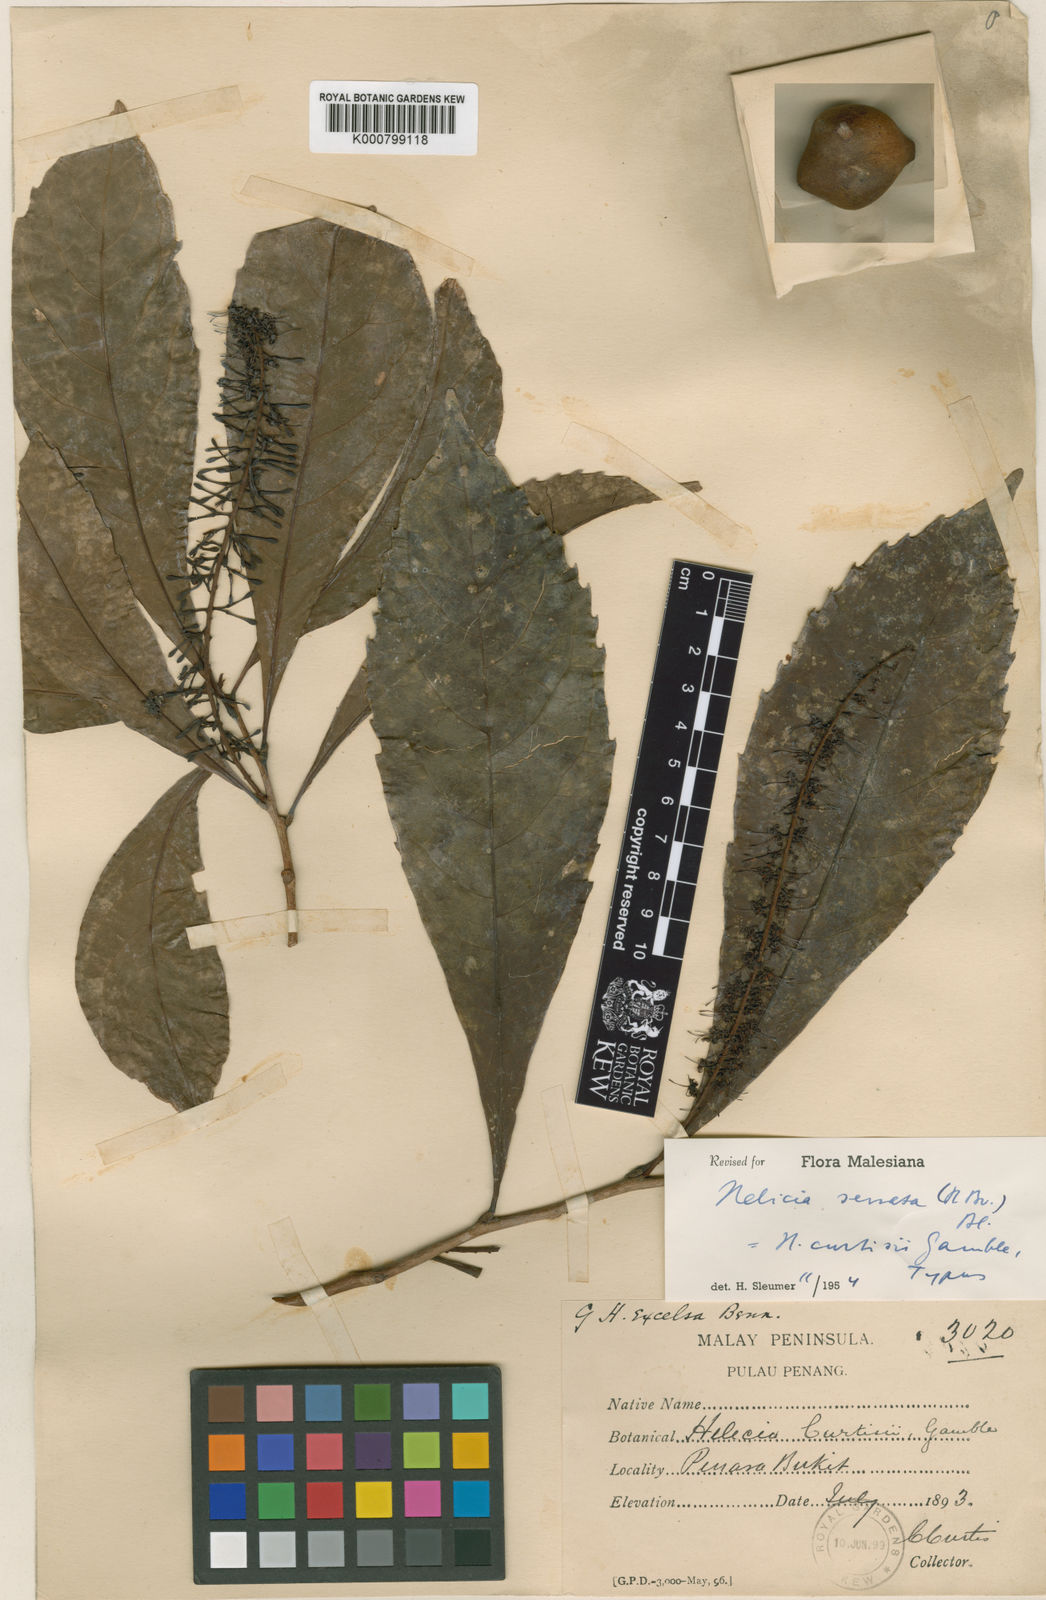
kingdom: Plantae
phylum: Tracheophyta
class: Magnoliopsida
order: Proteales
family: Proteaceae
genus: Helicia
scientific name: Helicia serrata
